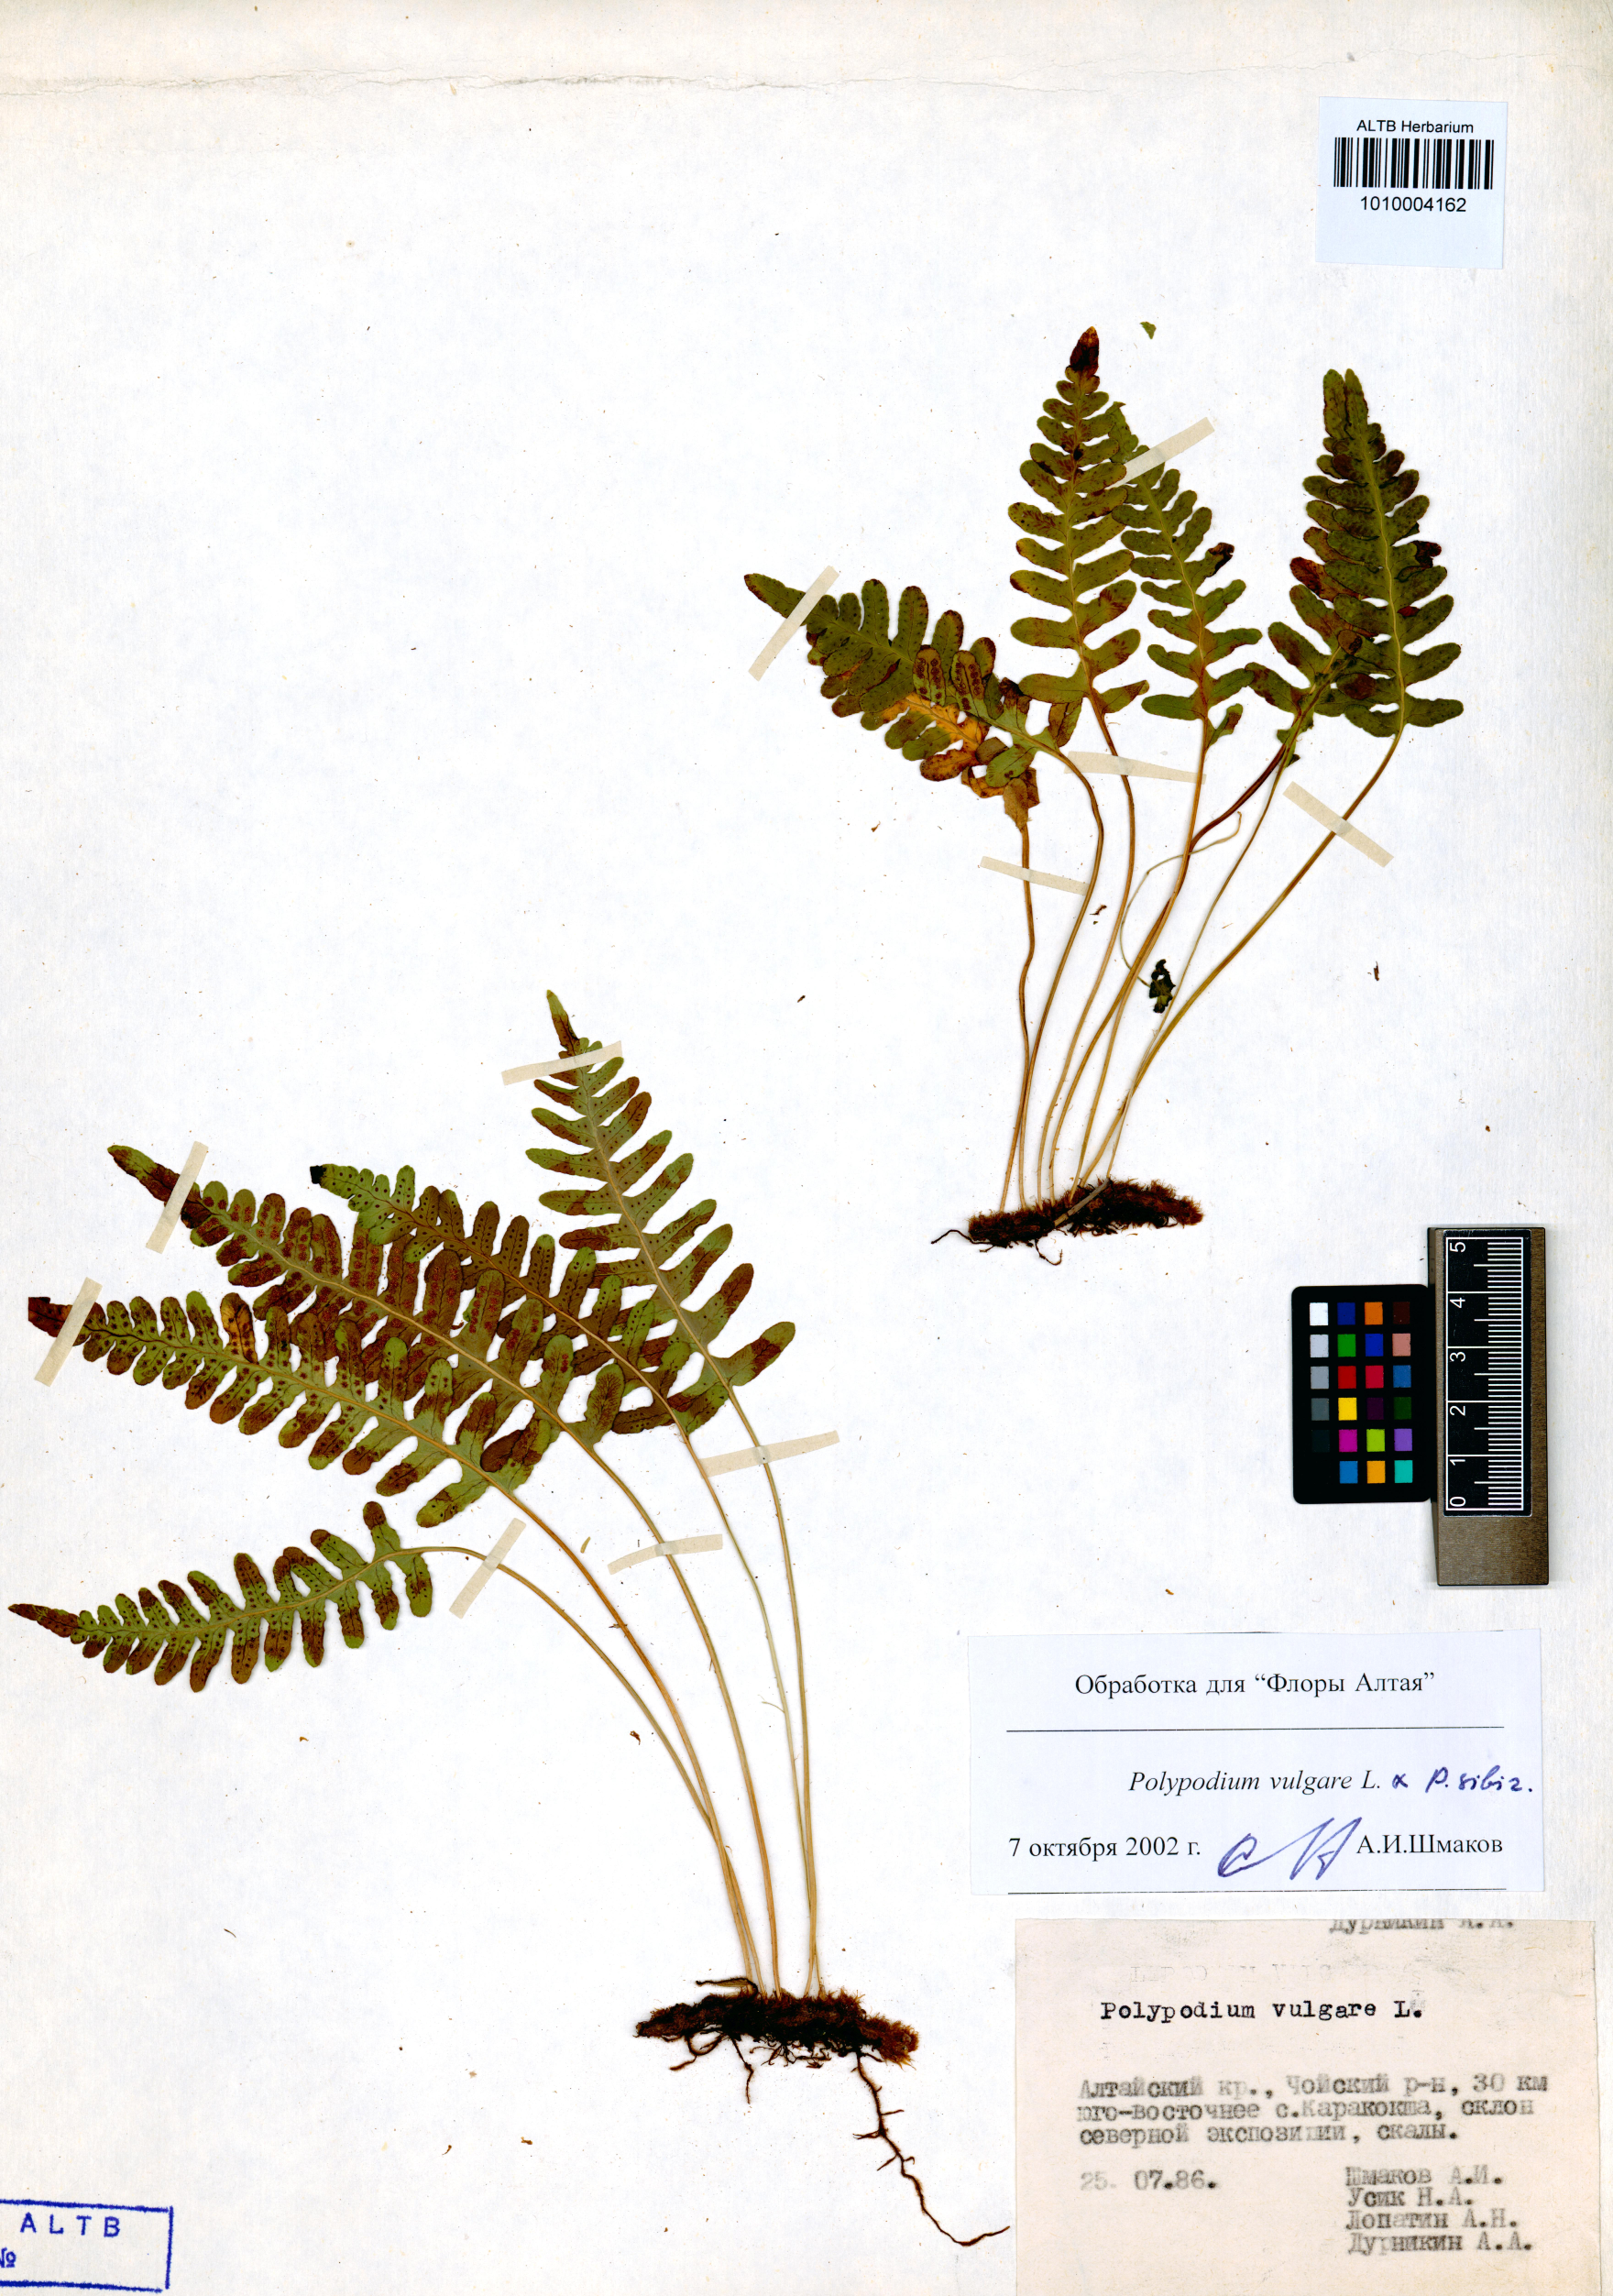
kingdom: Plantae
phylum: Tracheophyta
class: Polypodiopsida
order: Polypodiales
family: Polypodiaceae
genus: Polypodium
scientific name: Polypodium vulgare
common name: Common polypody
